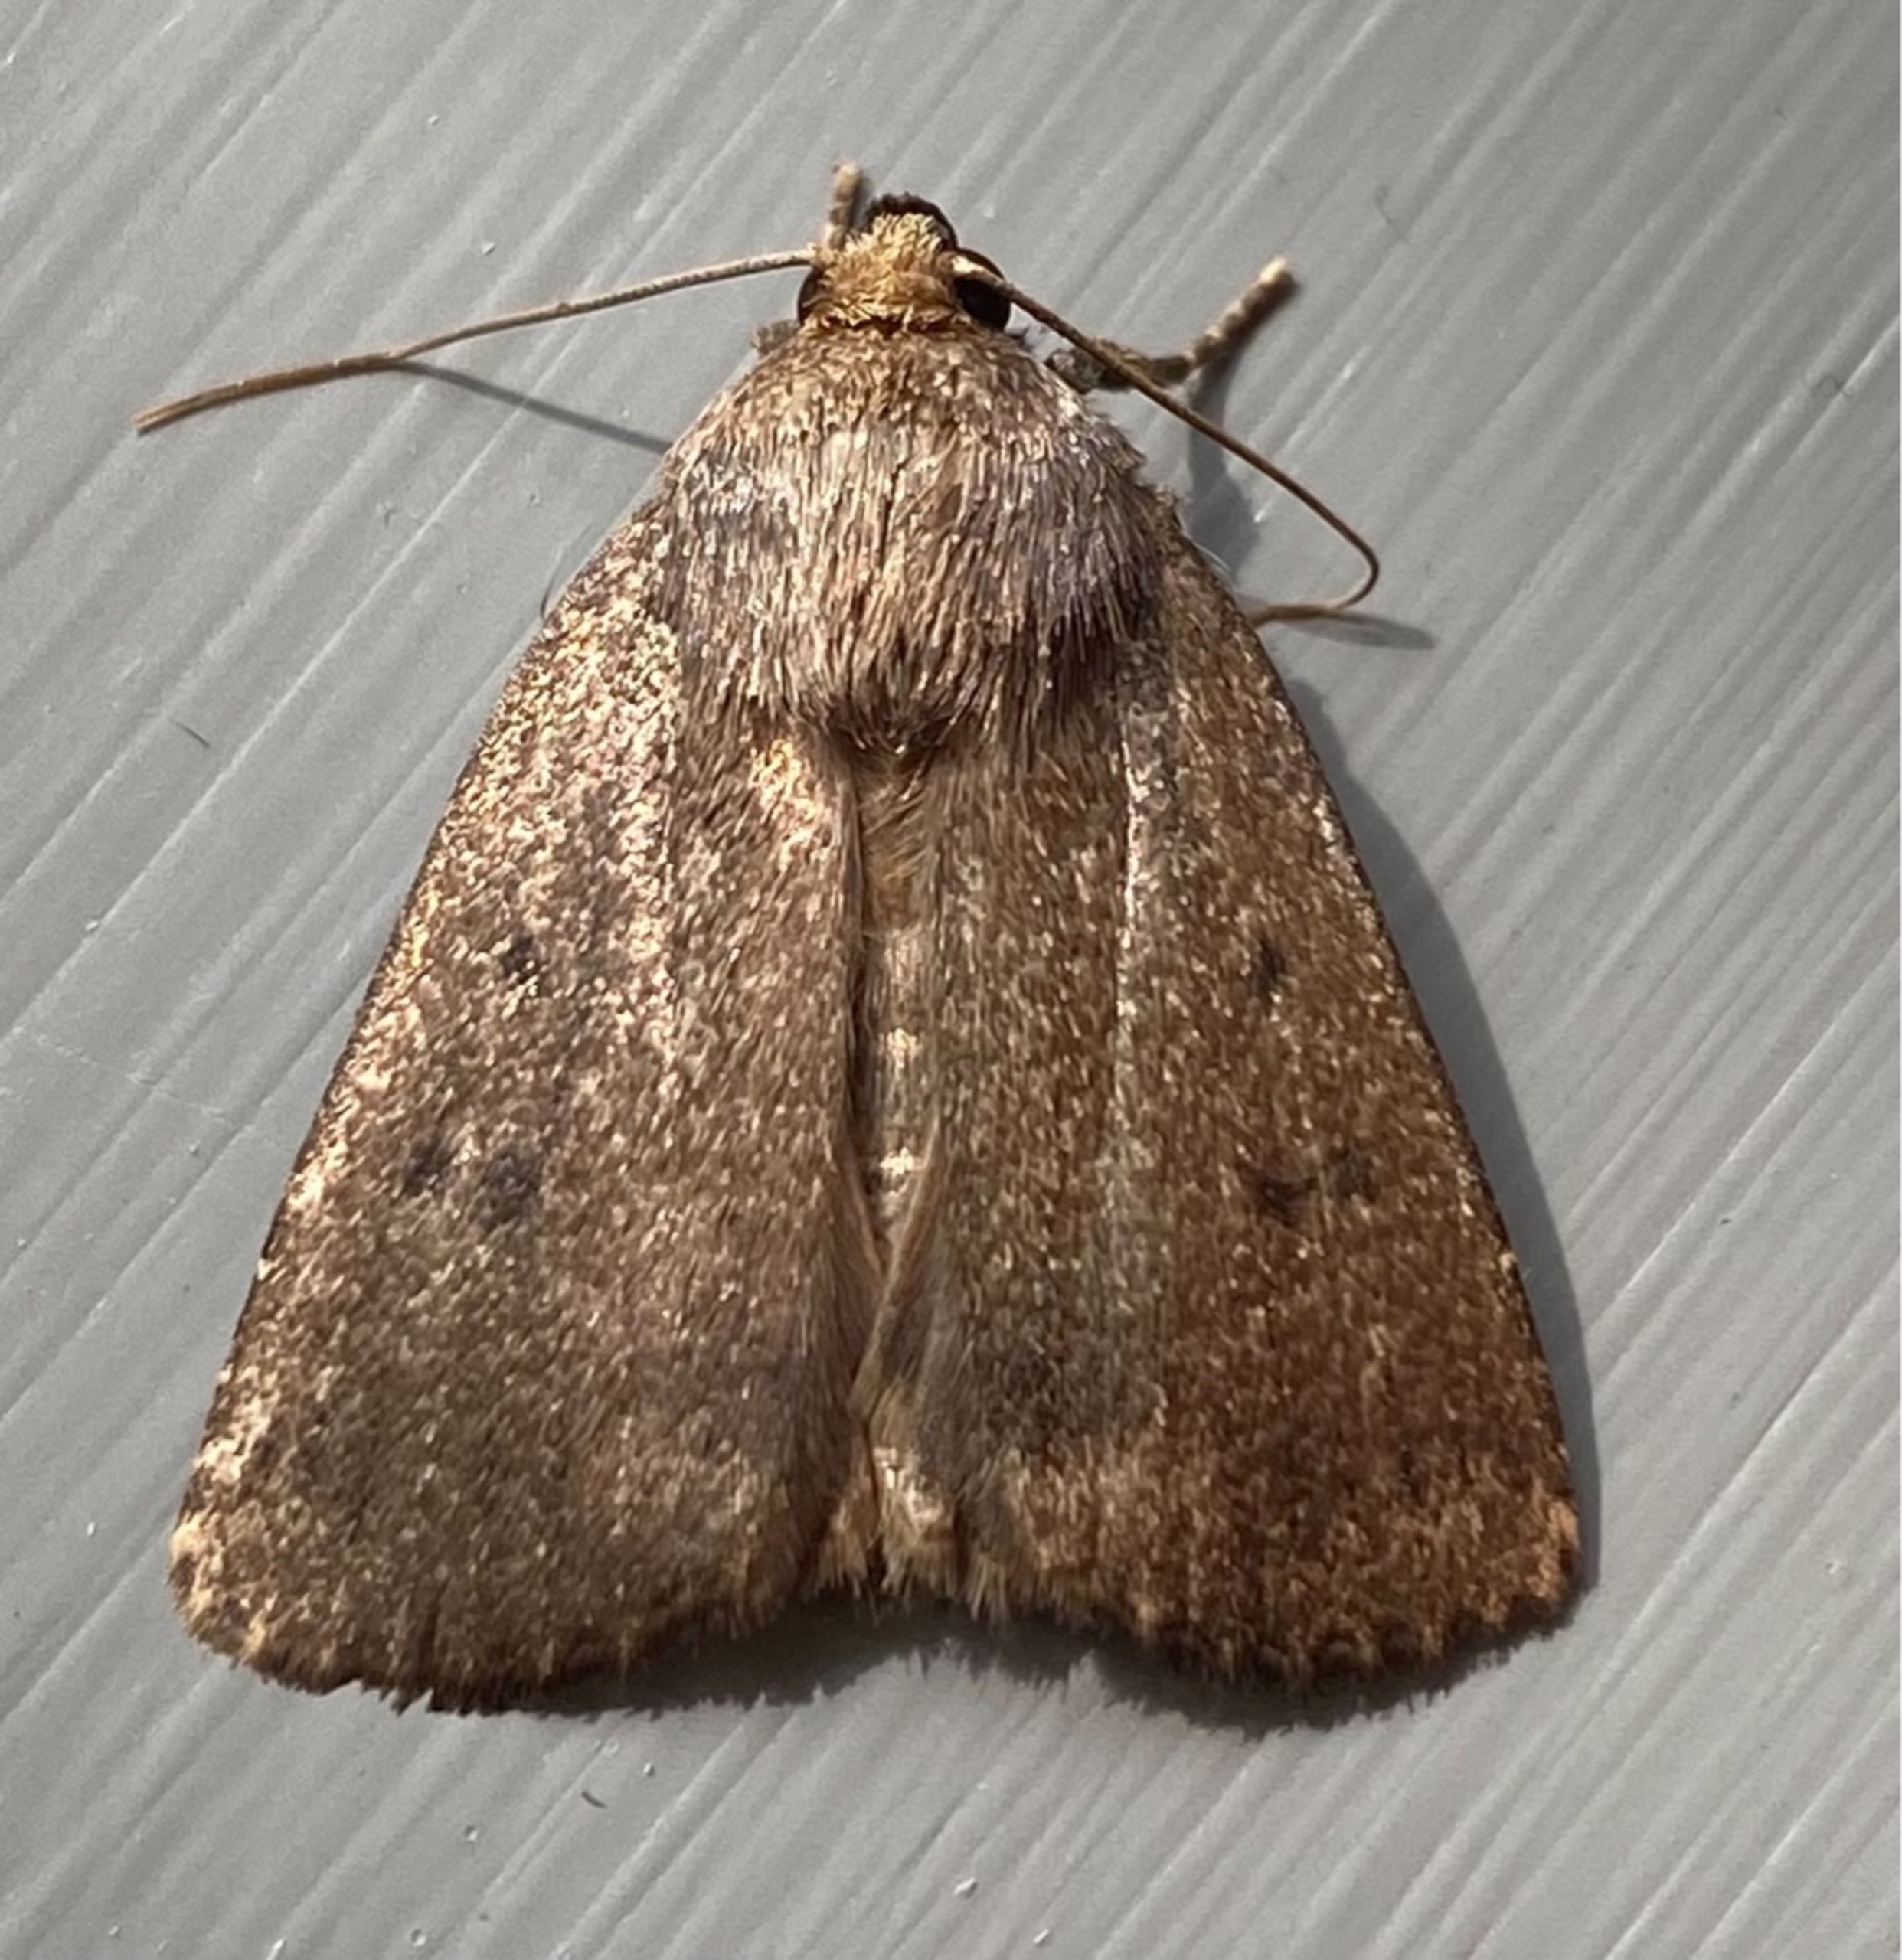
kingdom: Animalia
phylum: Arthropoda
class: Insecta
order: Lepidoptera
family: Noctuidae
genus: Amphipyra
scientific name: Amphipyra tragopoginis
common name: Blyantsugle
